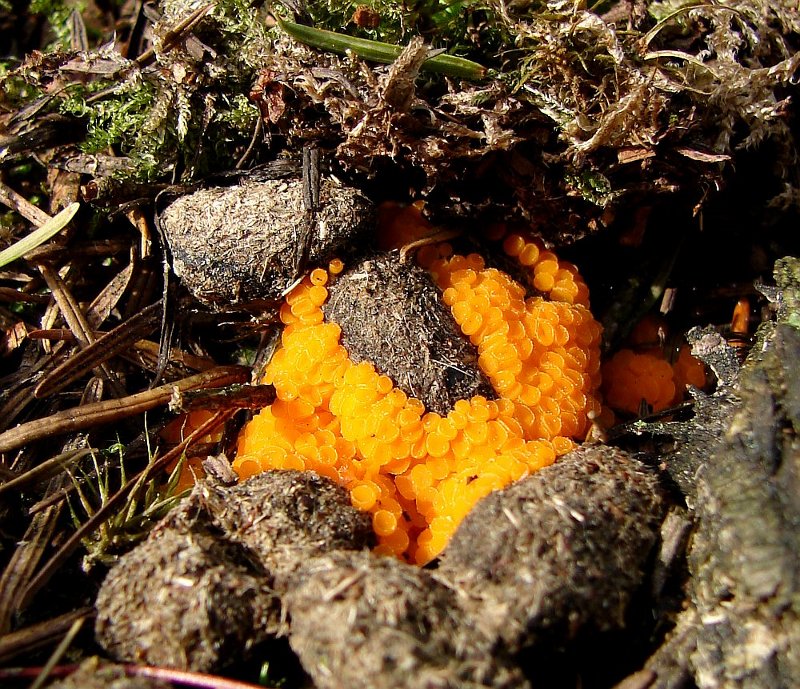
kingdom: Fungi
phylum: Ascomycota
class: Pezizomycetes
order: Pezizales
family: Pyronemataceae
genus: Byssonectria
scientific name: Byssonectria terrestris
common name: hjortebæger
